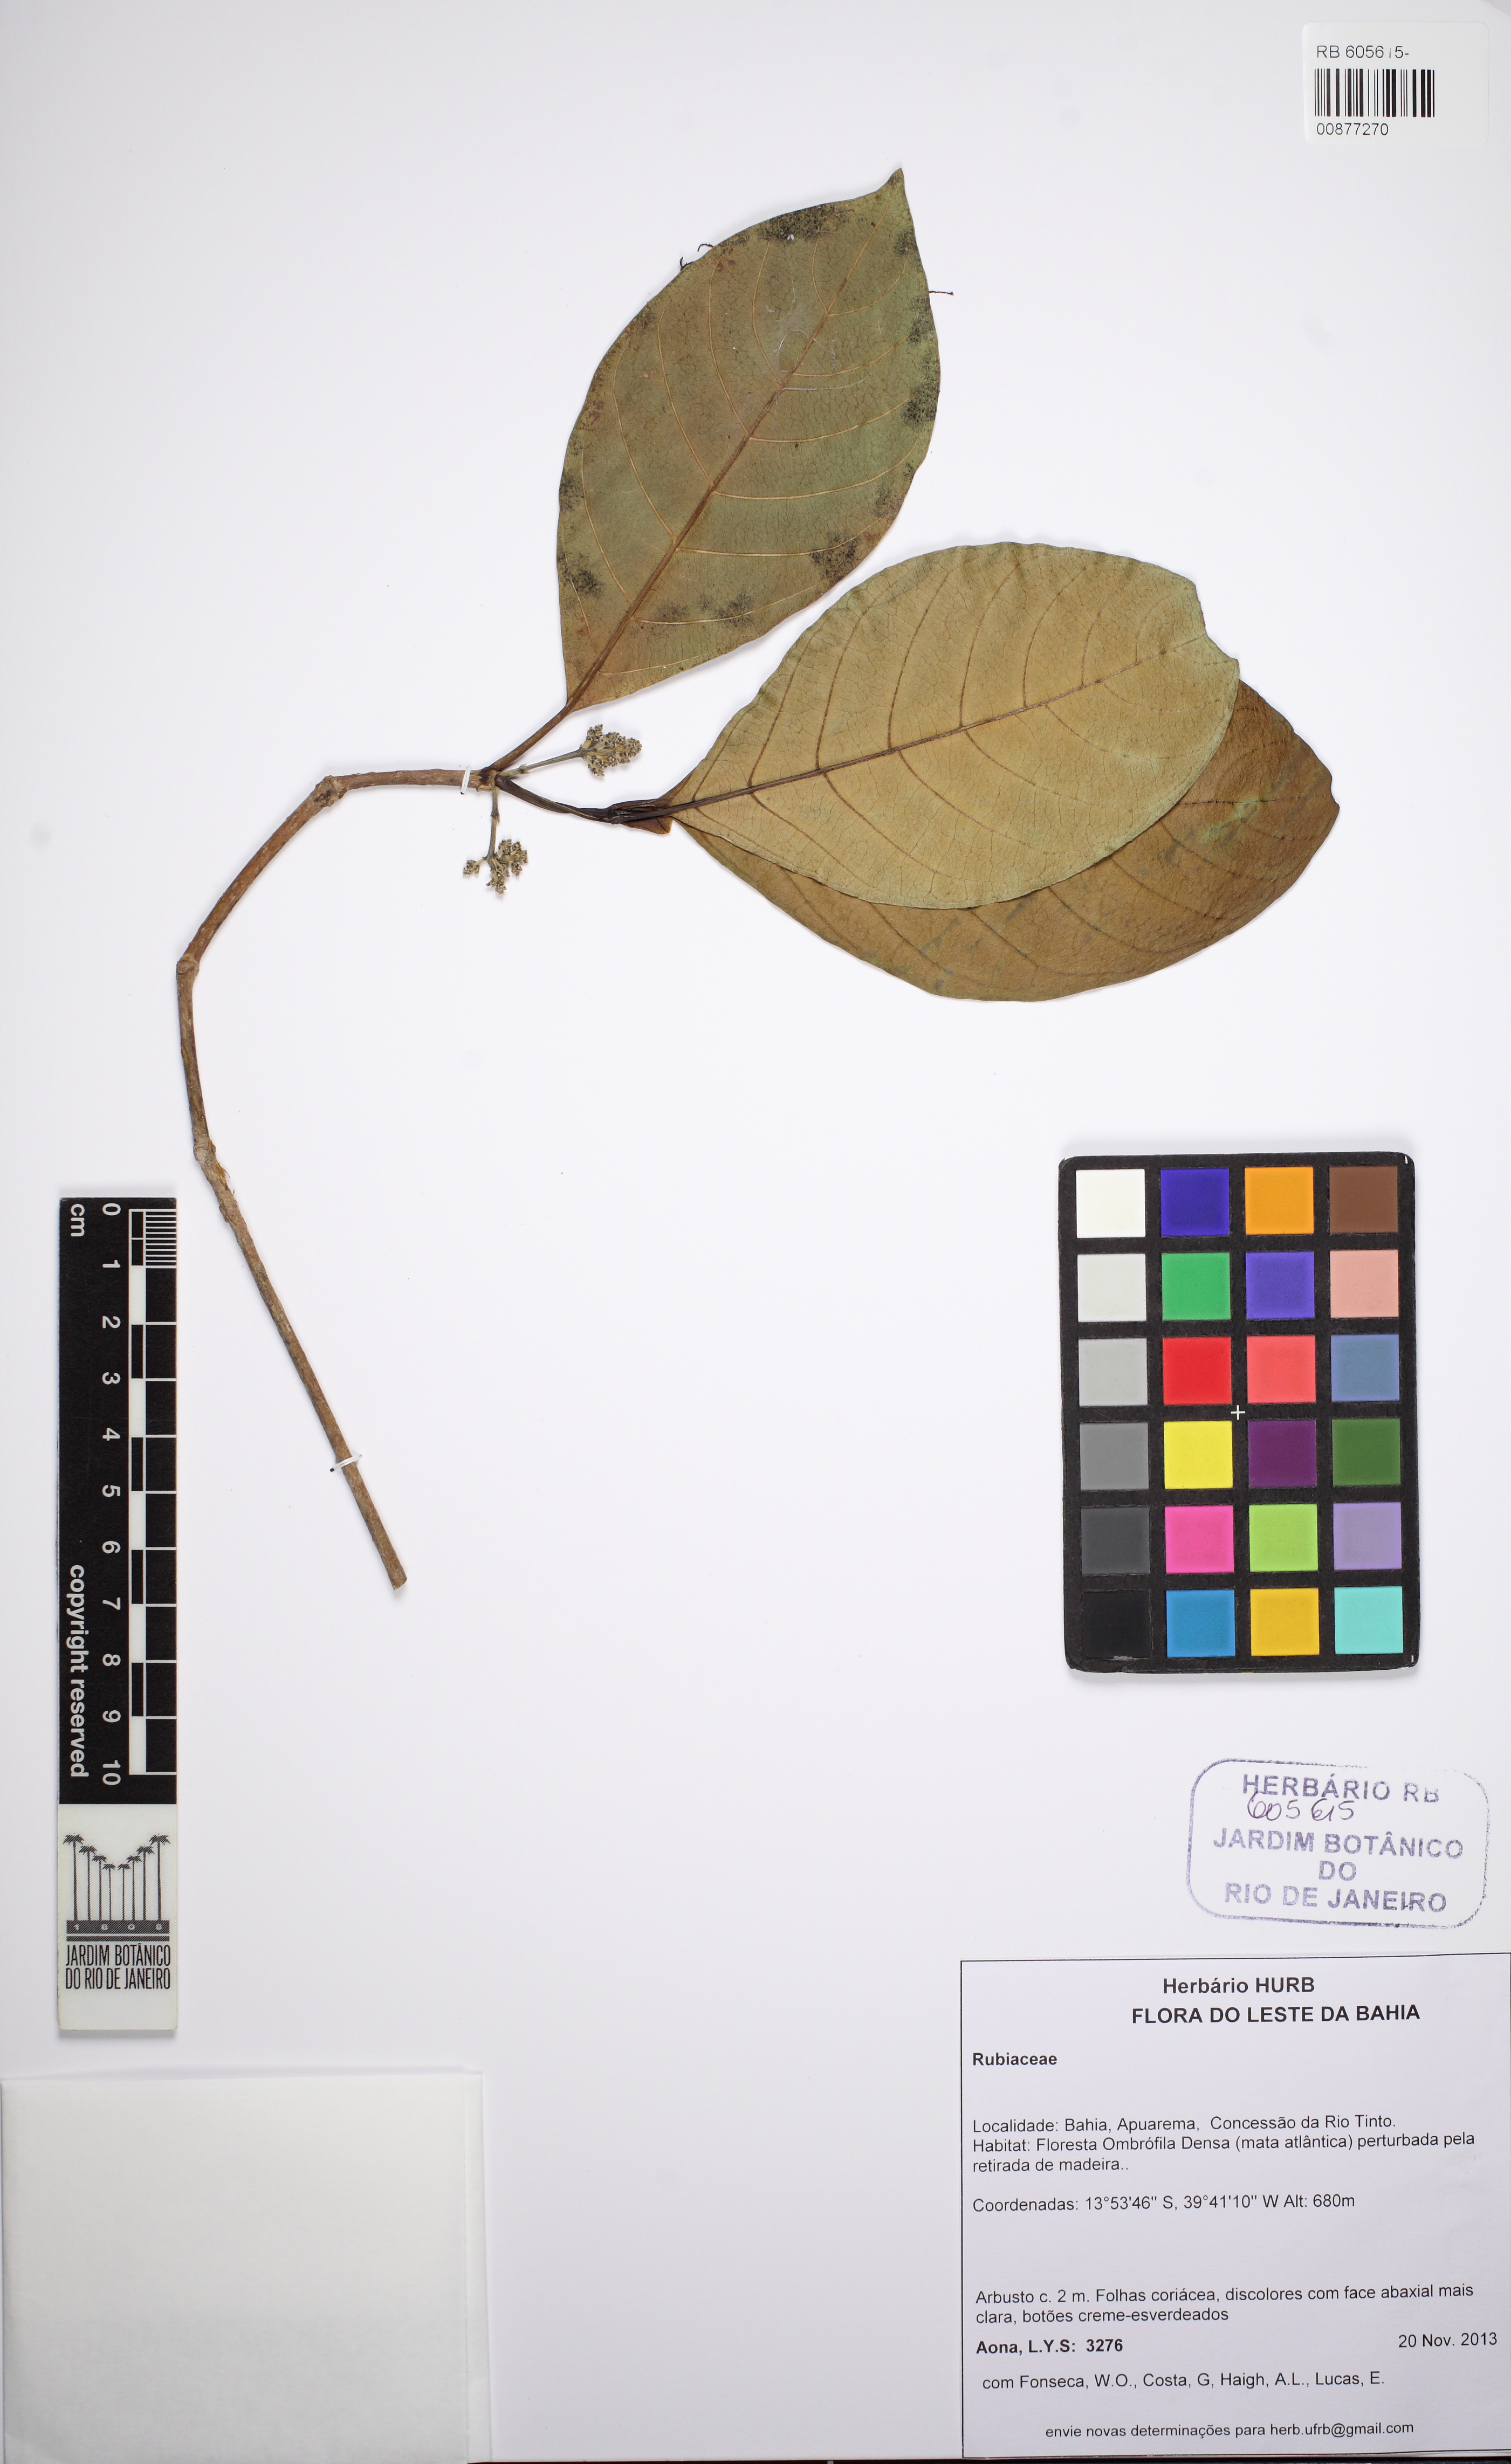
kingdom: Plantae
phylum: Tracheophyta
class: Magnoliopsida
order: Gentianales
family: Rubiaceae
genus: Malanea
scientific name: Malanea glabra
